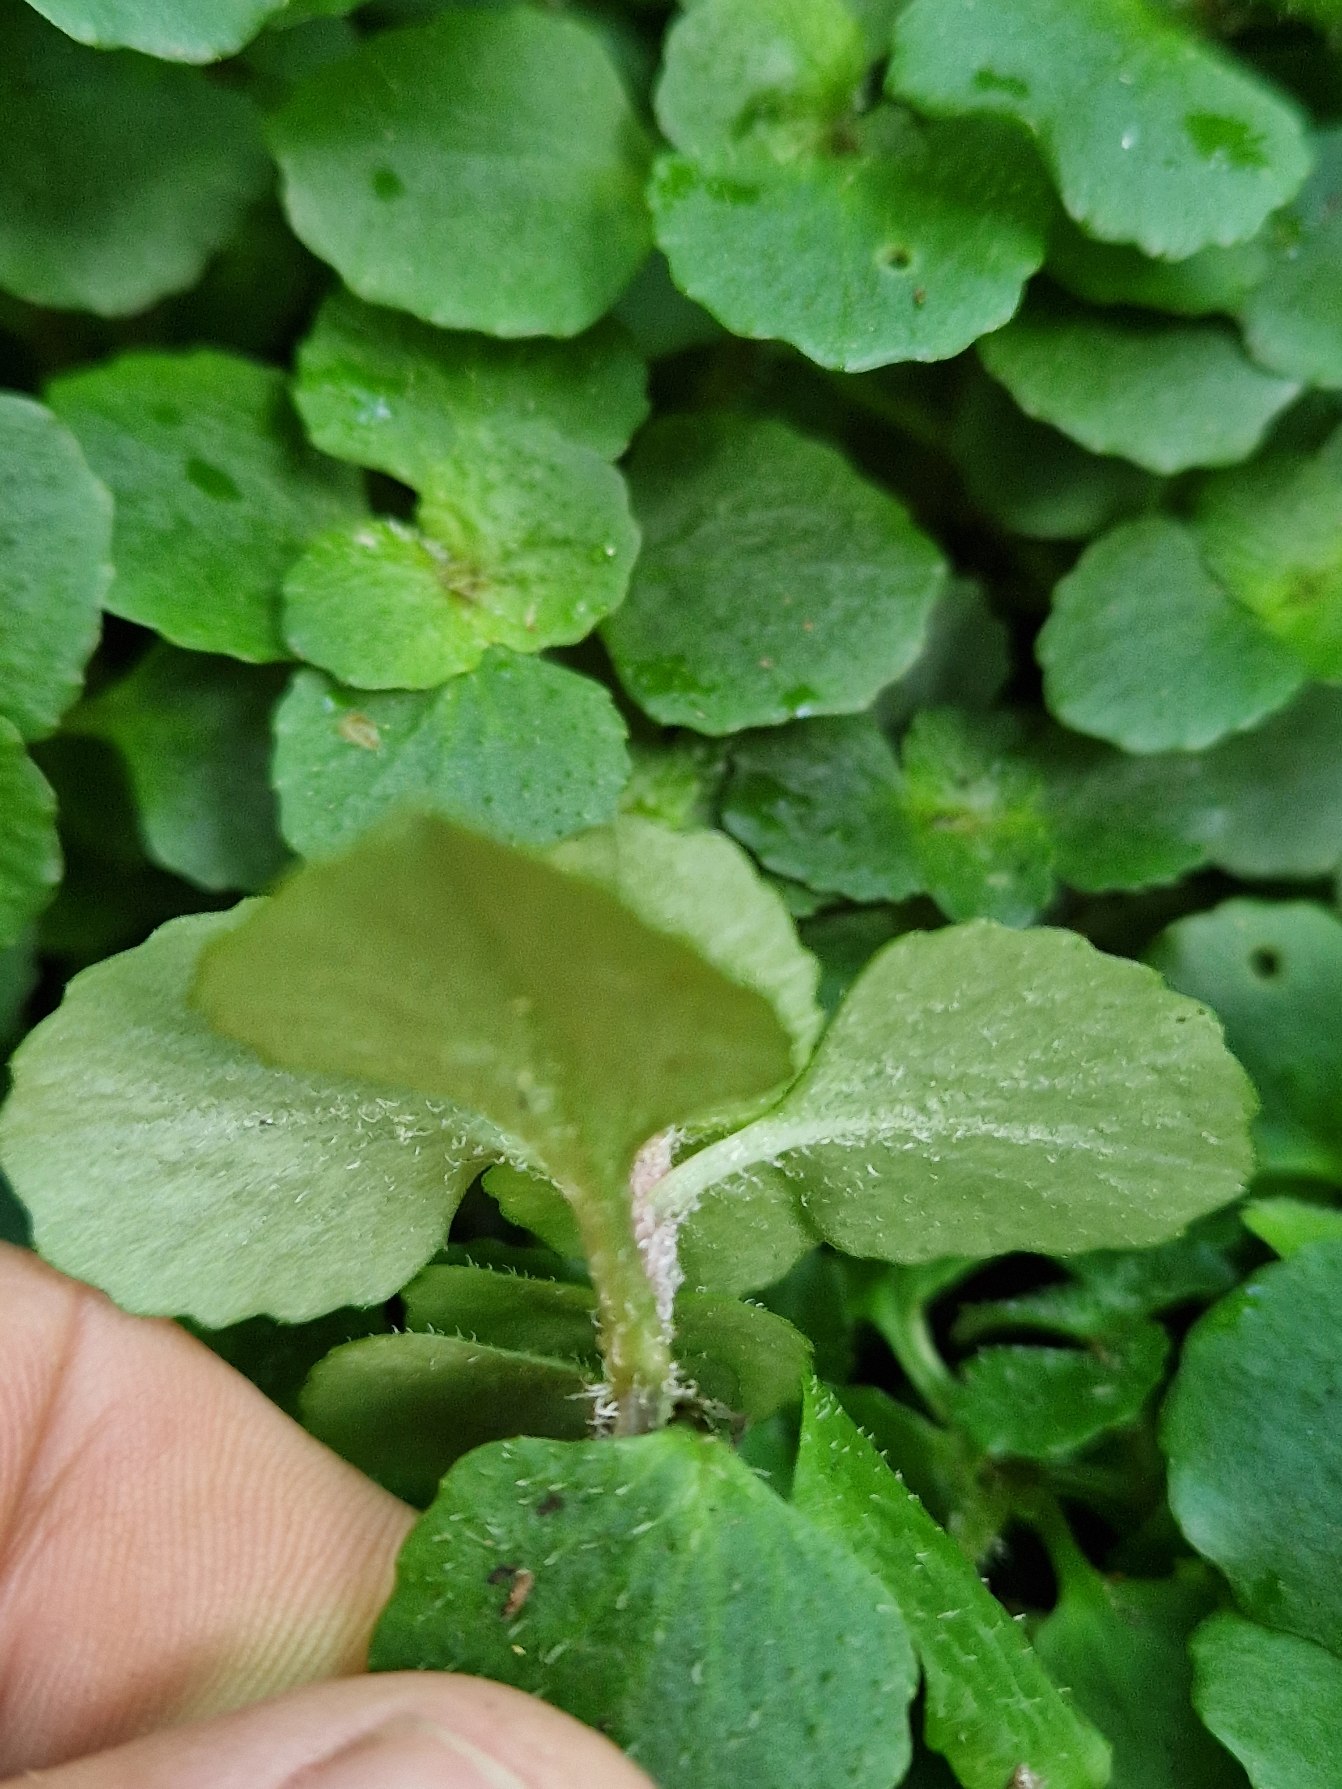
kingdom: Plantae
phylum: Tracheophyta
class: Magnoliopsida
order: Saxifragales
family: Saxifragaceae
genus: Chrysosplenium
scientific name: Chrysosplenium oppositifolium
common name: Småbladet milturt
